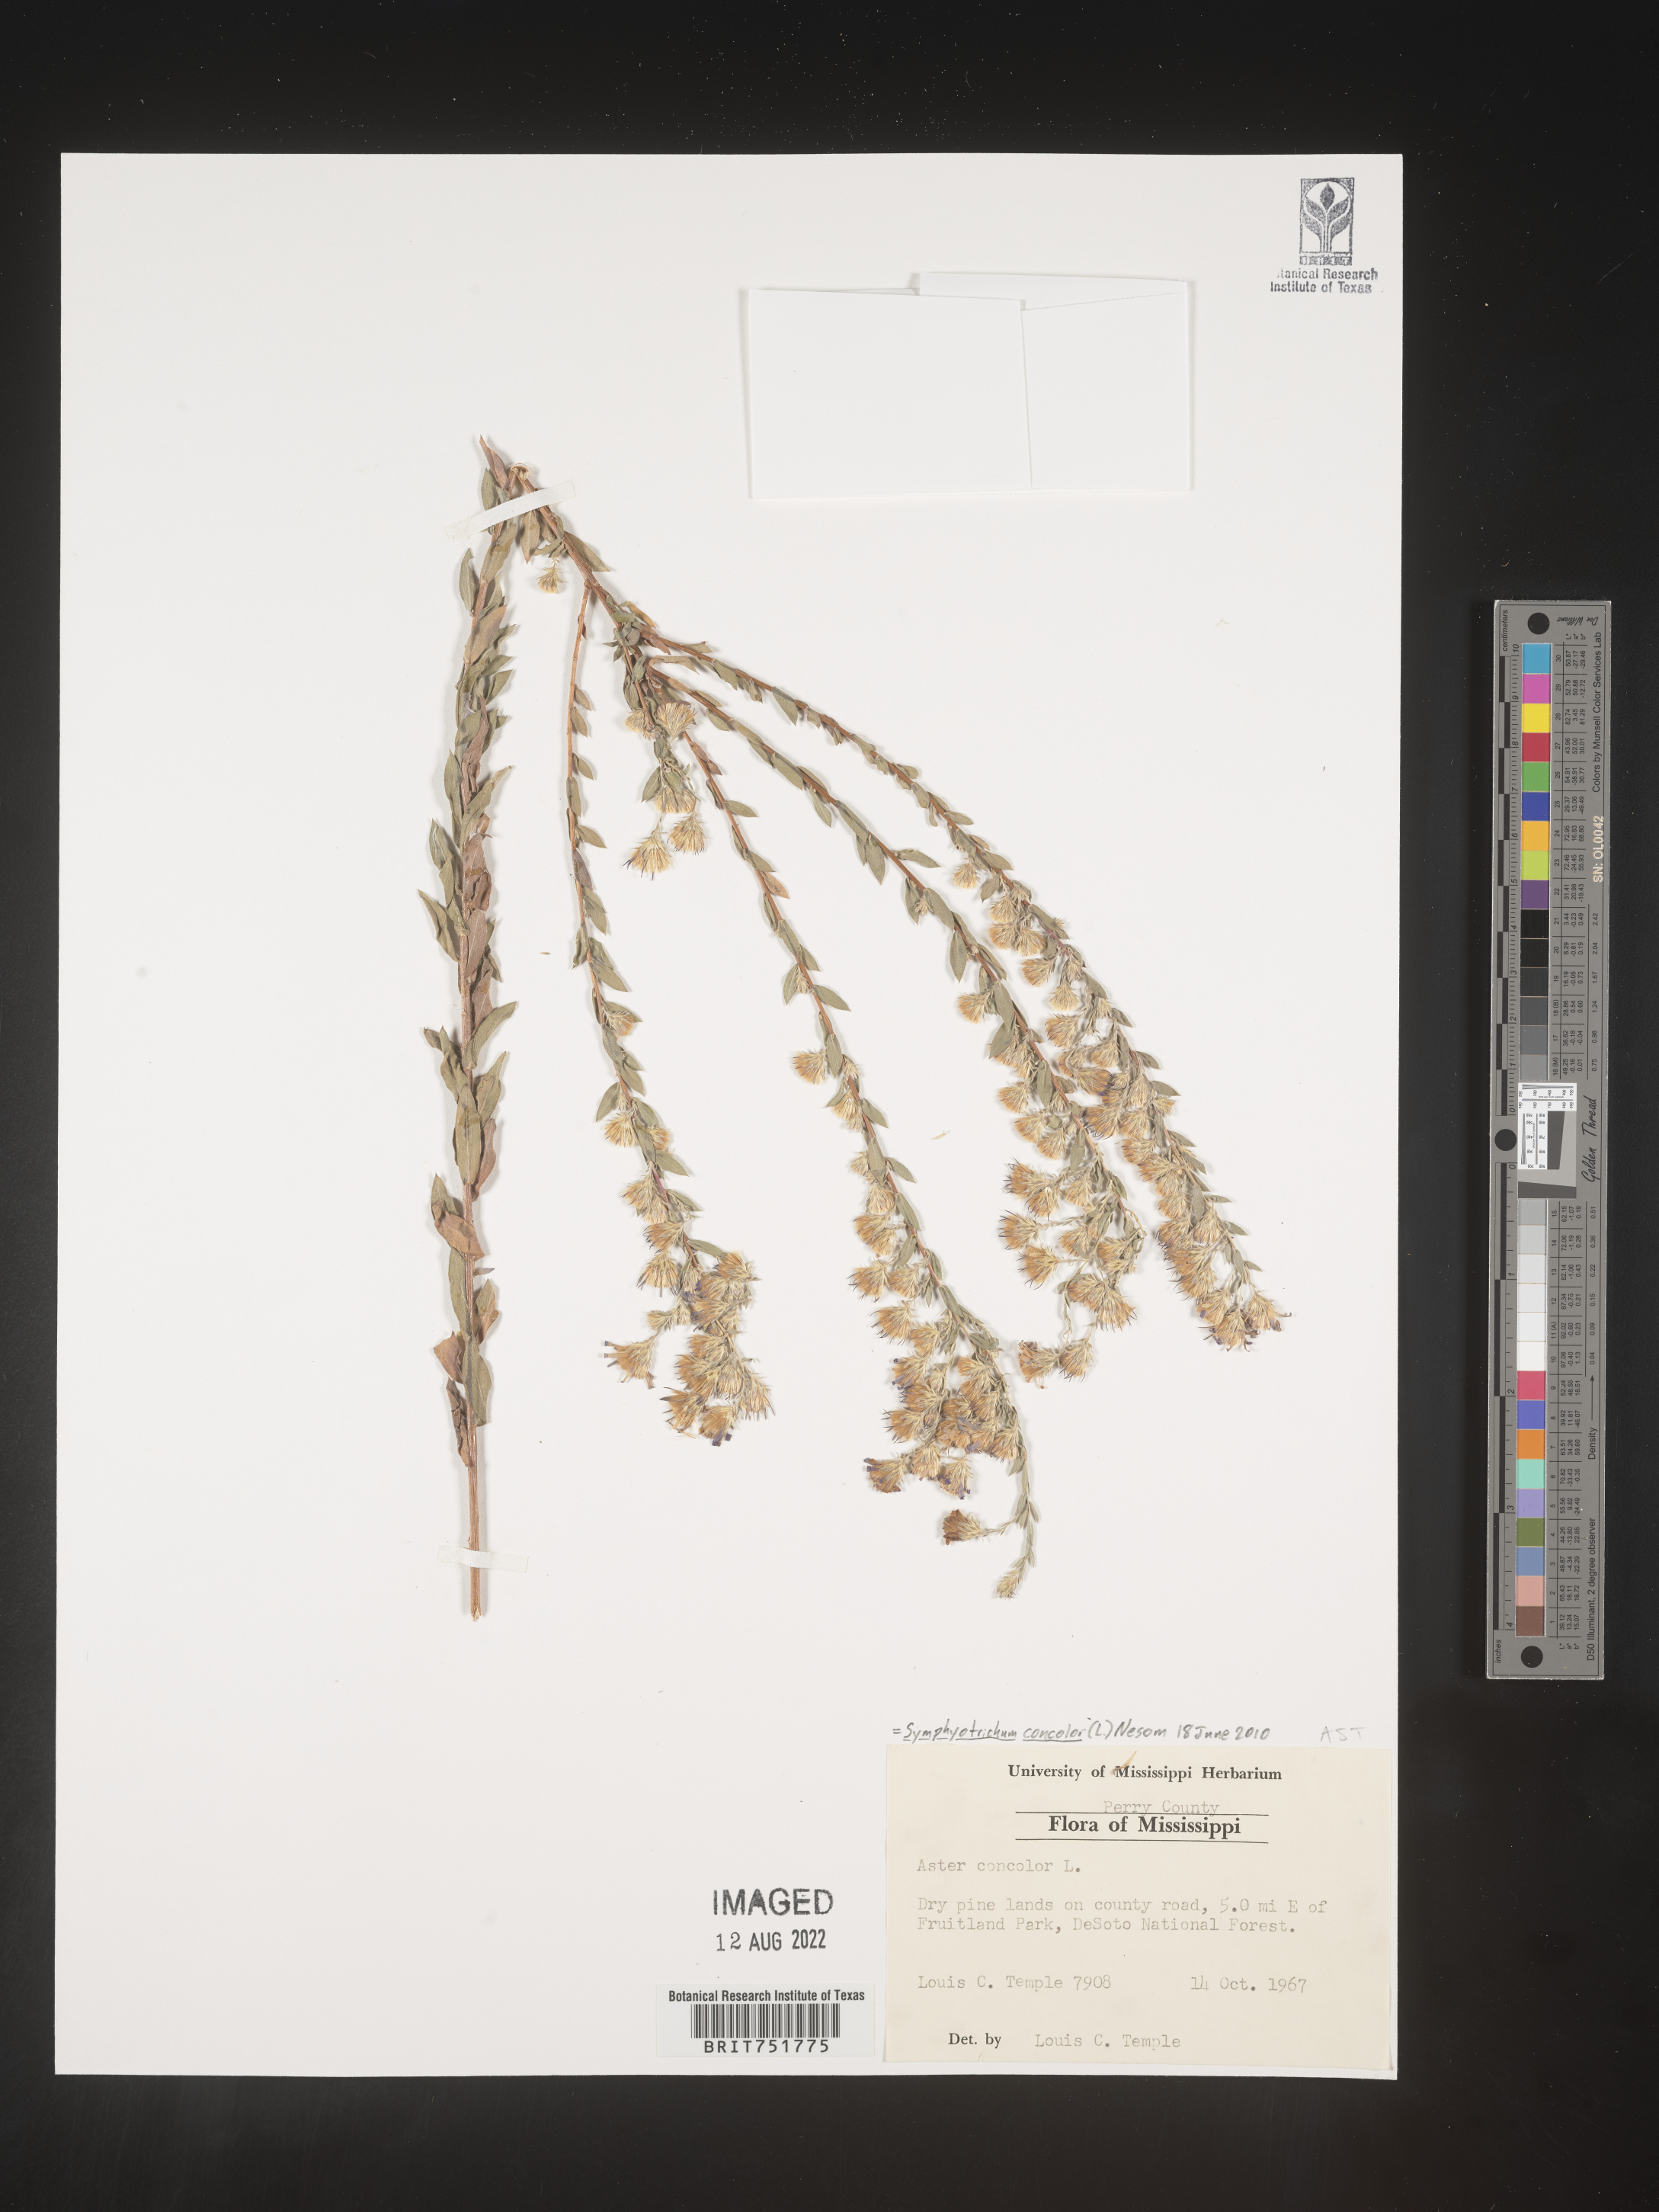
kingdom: Plantae
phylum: Tracheophyta
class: Magnoliopsida
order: Asterales
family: Asteraceae
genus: Symphyotrichum
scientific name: Symphyotrichum concolor
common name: Eastern silver aster
